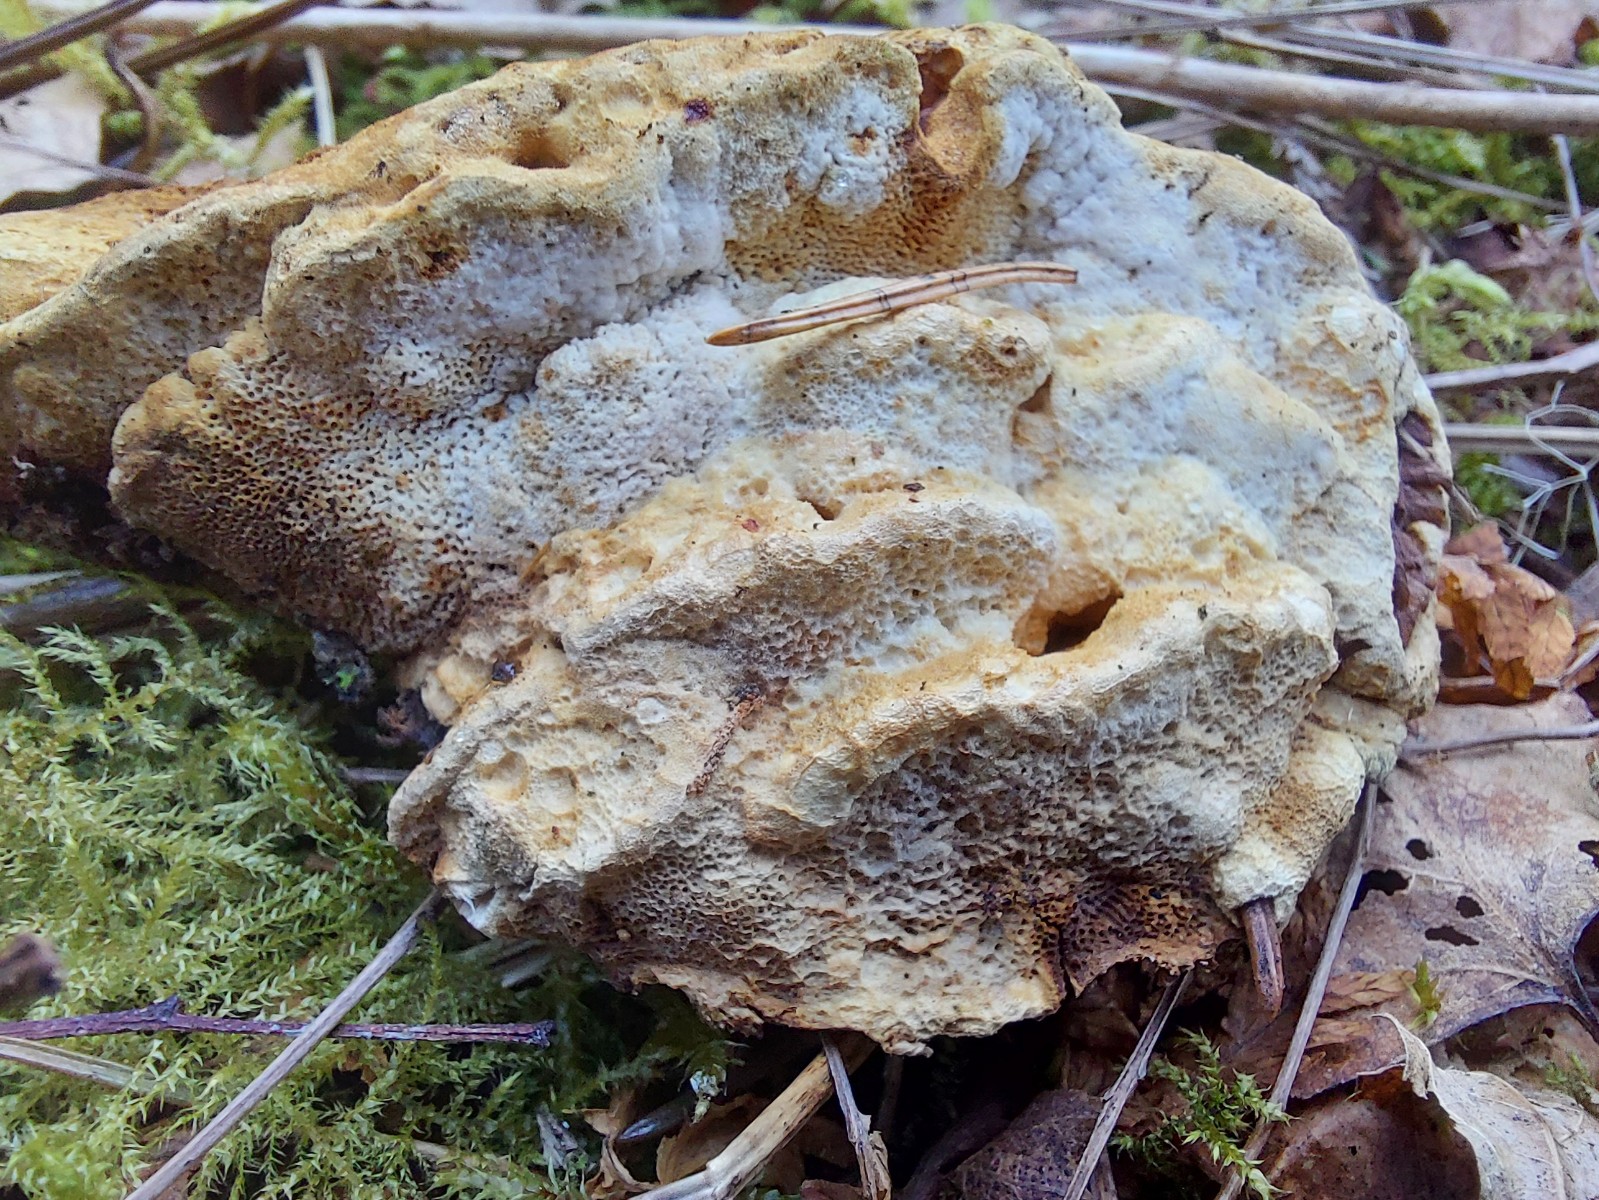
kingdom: Fungi
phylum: Basidiomycota
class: Agaricomycetes
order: Polyporales
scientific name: Polyporales
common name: poresvampordenen
